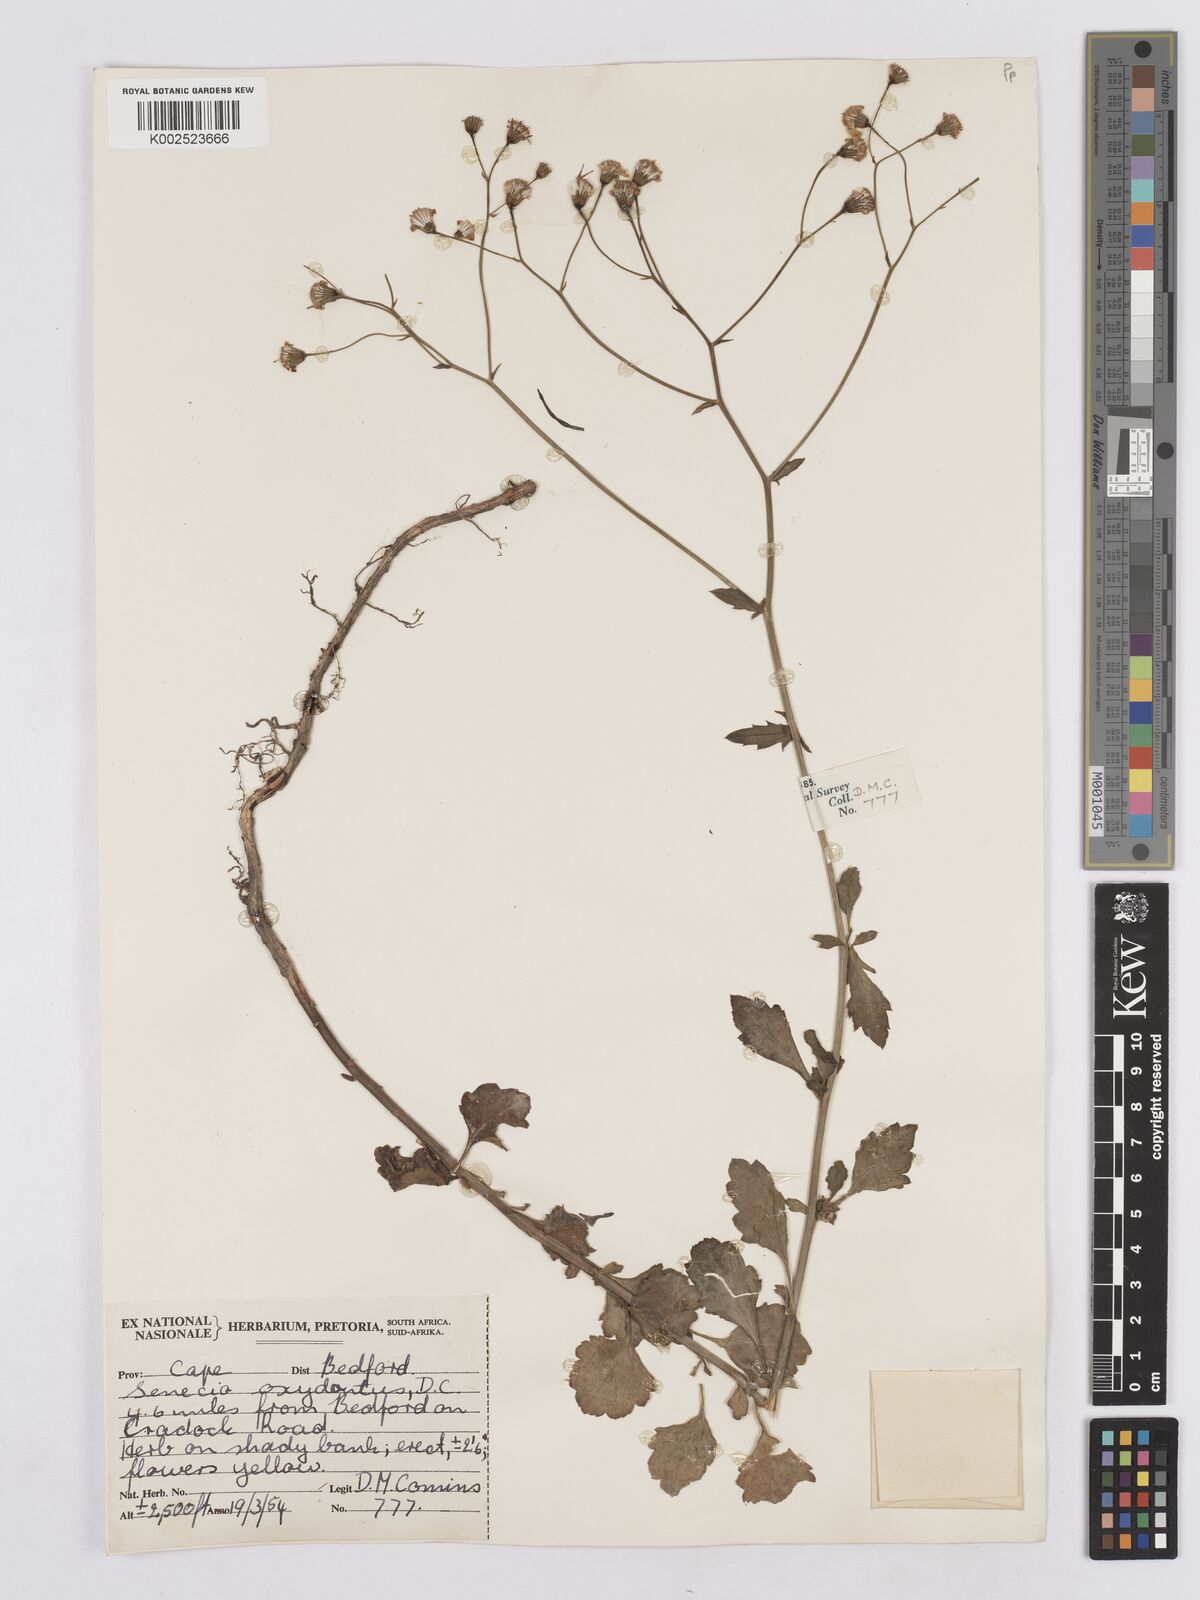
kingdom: Plantae
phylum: Tracheophyta
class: Magnoliopsida
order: Asterales
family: Asteraceae
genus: Senecio
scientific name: Senecio linifolius
